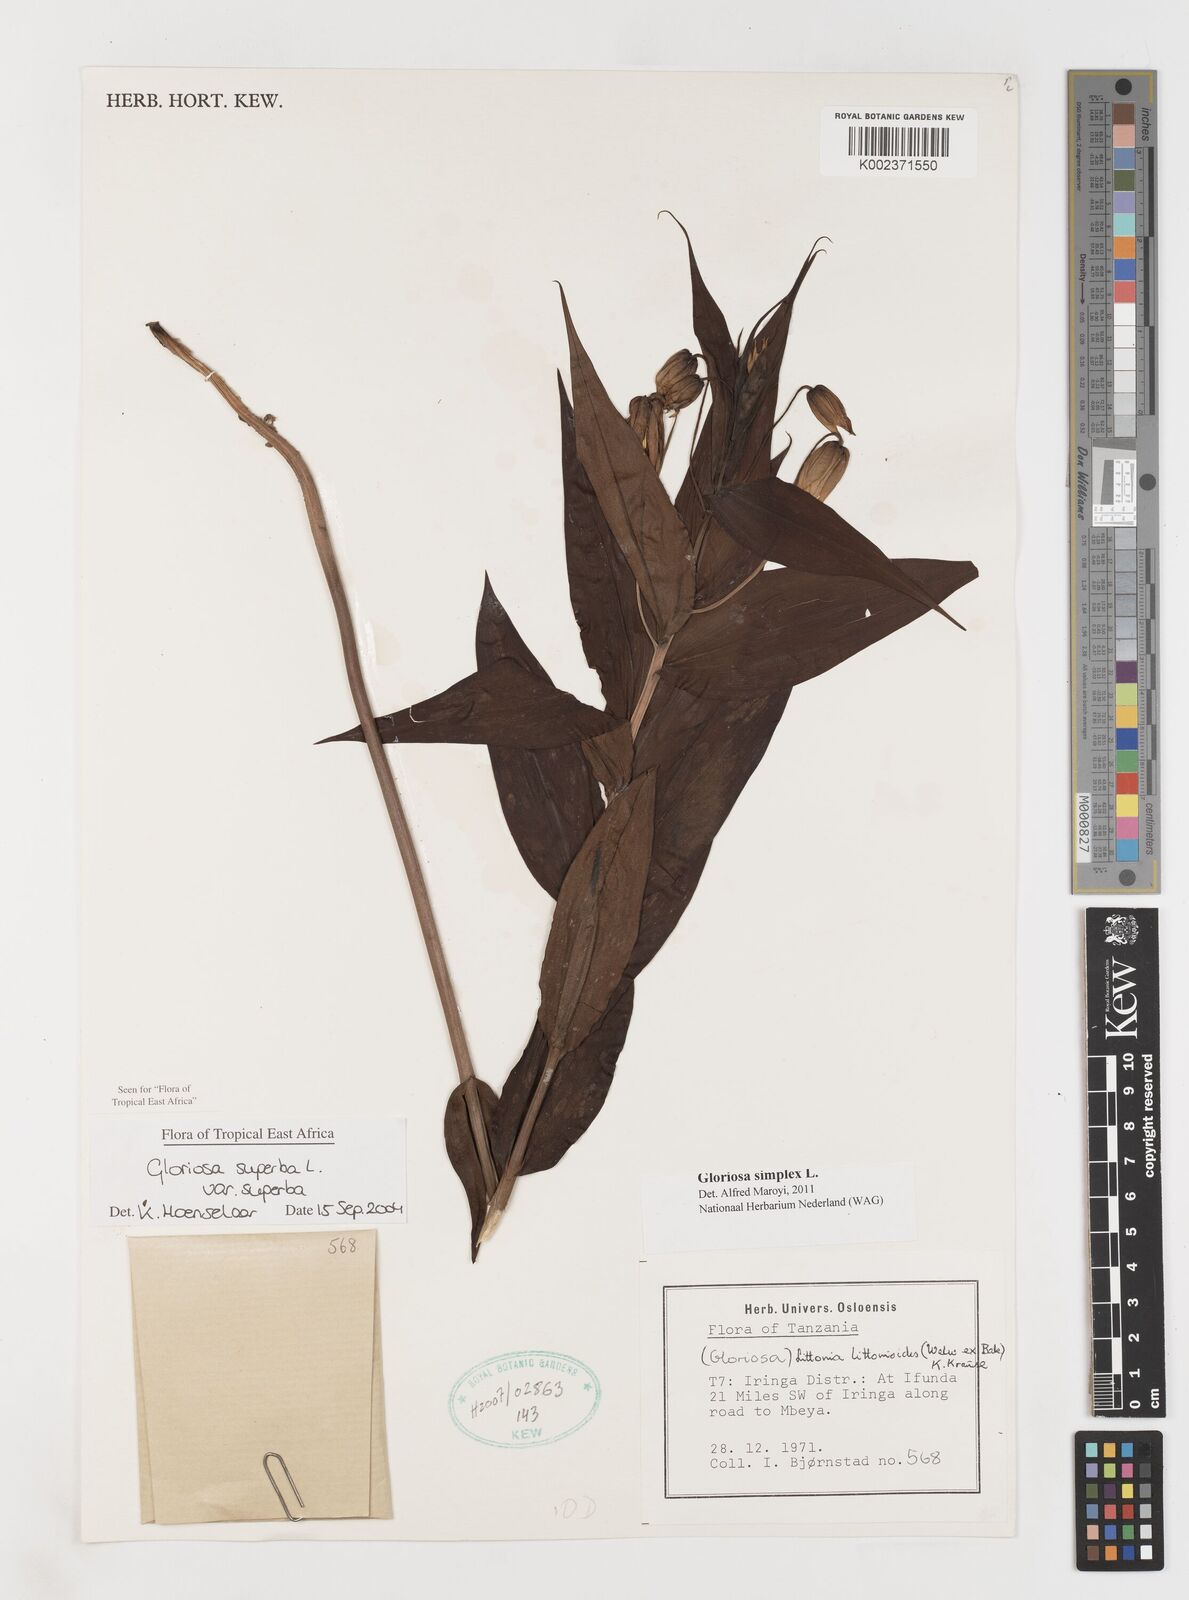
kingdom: Plantae
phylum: Tracheophyta
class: Liliopsida
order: Liliales
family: Colchicaceae
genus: Gloriosa
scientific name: Gloriosa simplex
